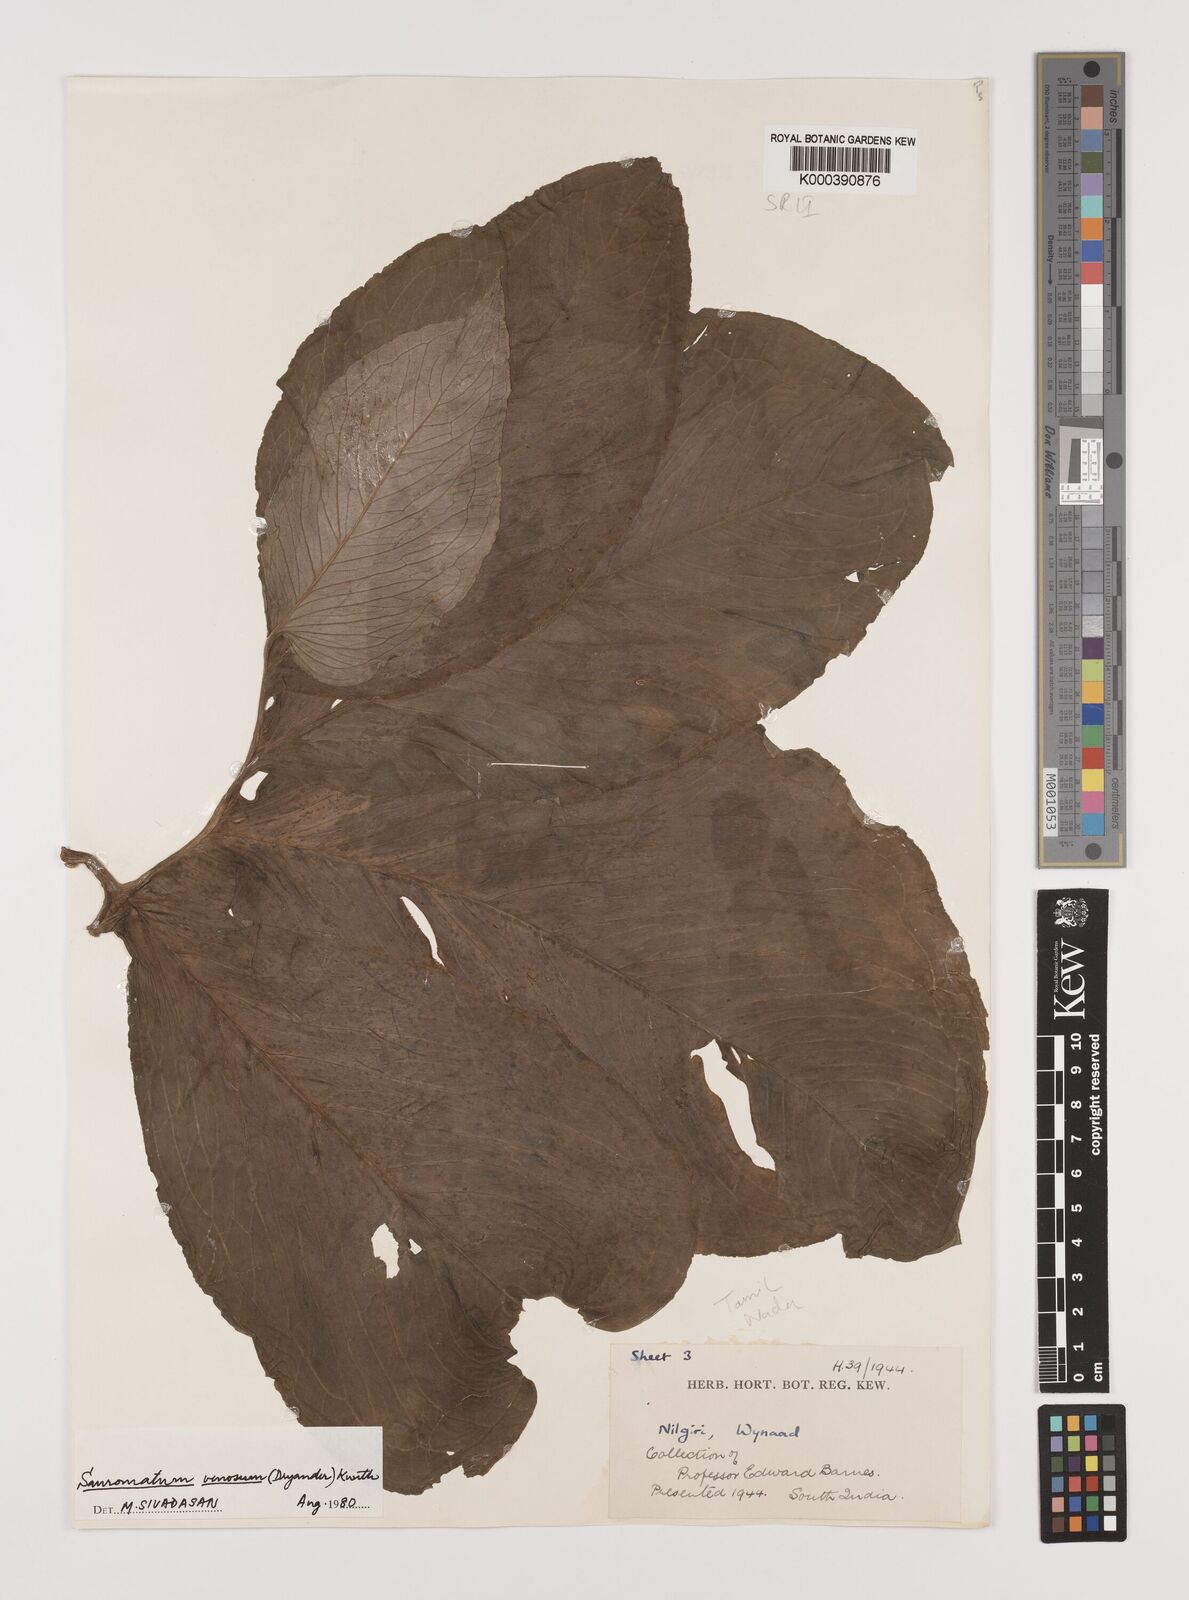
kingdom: Plantae
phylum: Tracheophyta
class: Liliopsida
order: Alismatales
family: Araceae
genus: Sauromatum
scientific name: Sauromatum venosum
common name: Voodoo lily
